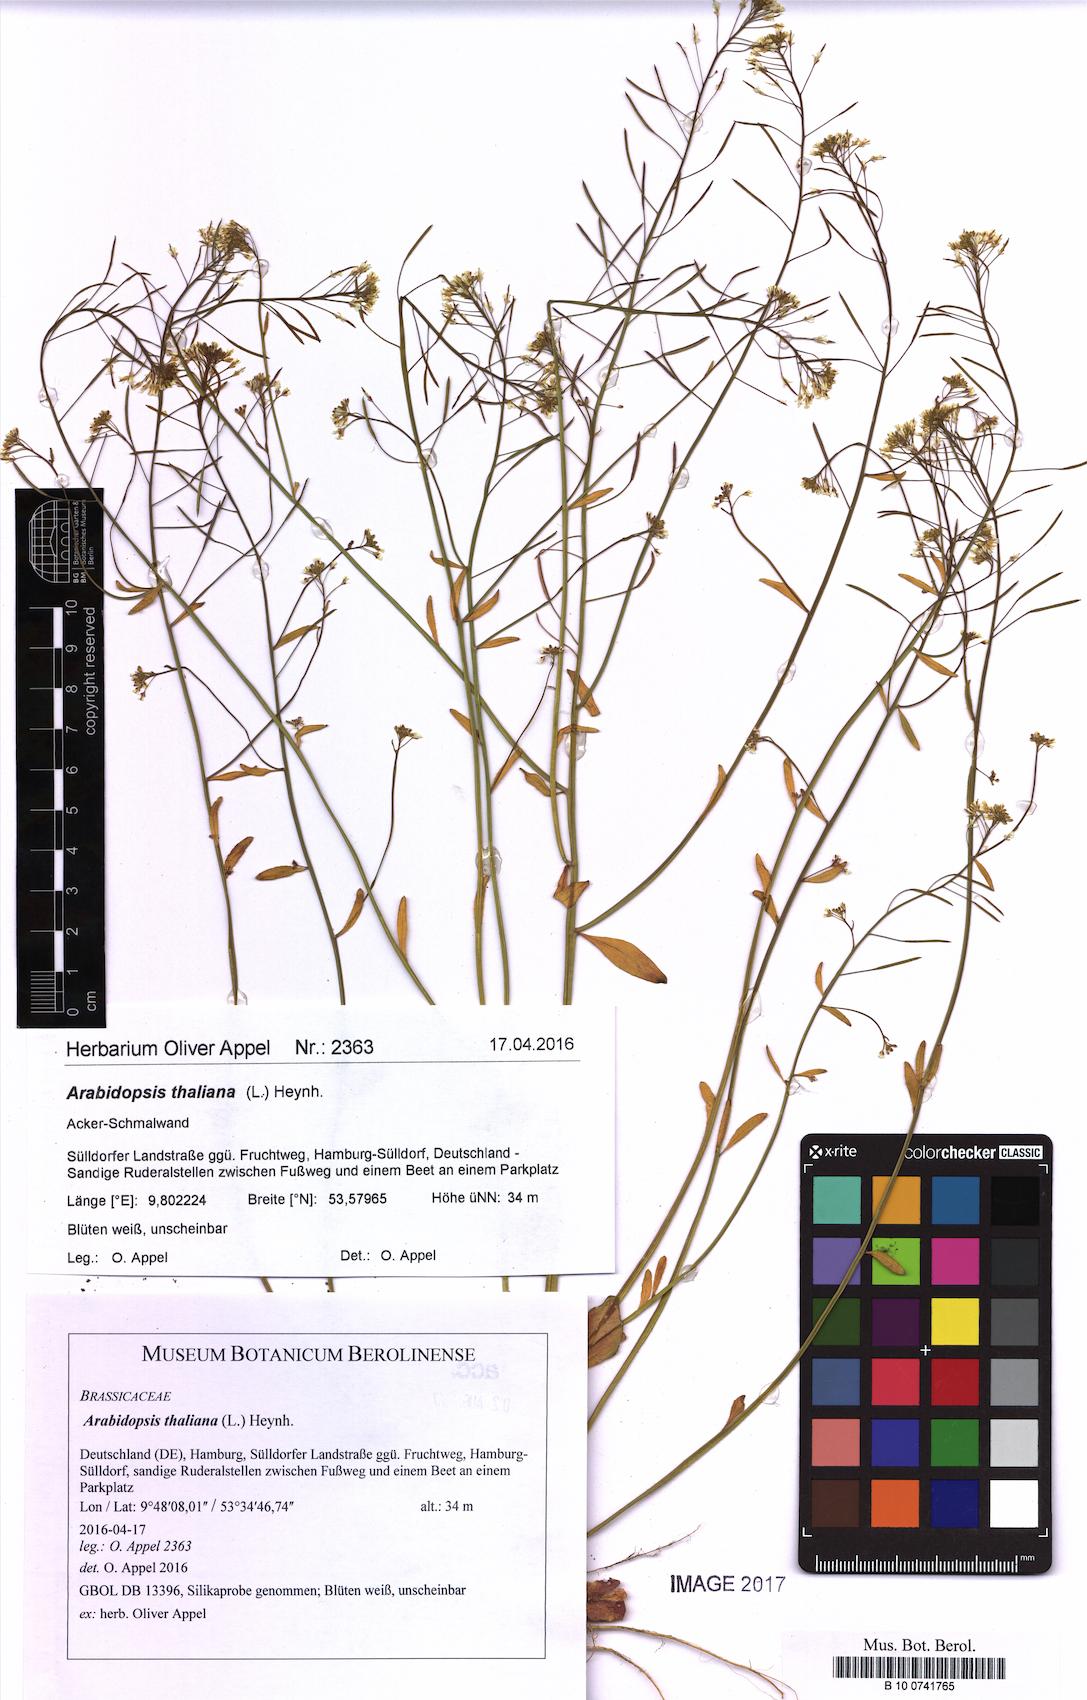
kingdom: Plantae
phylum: Tracheophyta
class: Magnoliopsida
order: Brassicales
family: Brassicaceae
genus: Arabidopsis
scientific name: Arabidopsis thaliana
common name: Thale cress
